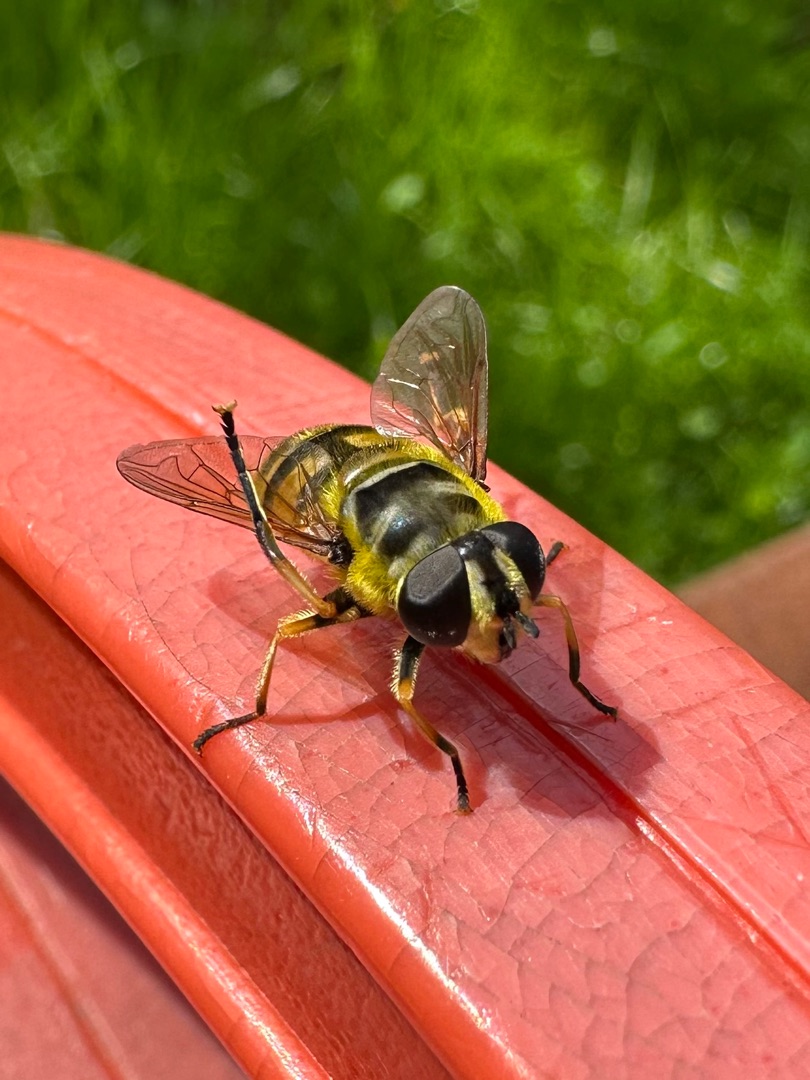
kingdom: Animalia
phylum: Arthropoda
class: Insecta
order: Diptera
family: Syrphidae
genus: Myathropa
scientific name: Myathropa florea
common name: Dødningehoved-svirreflue
